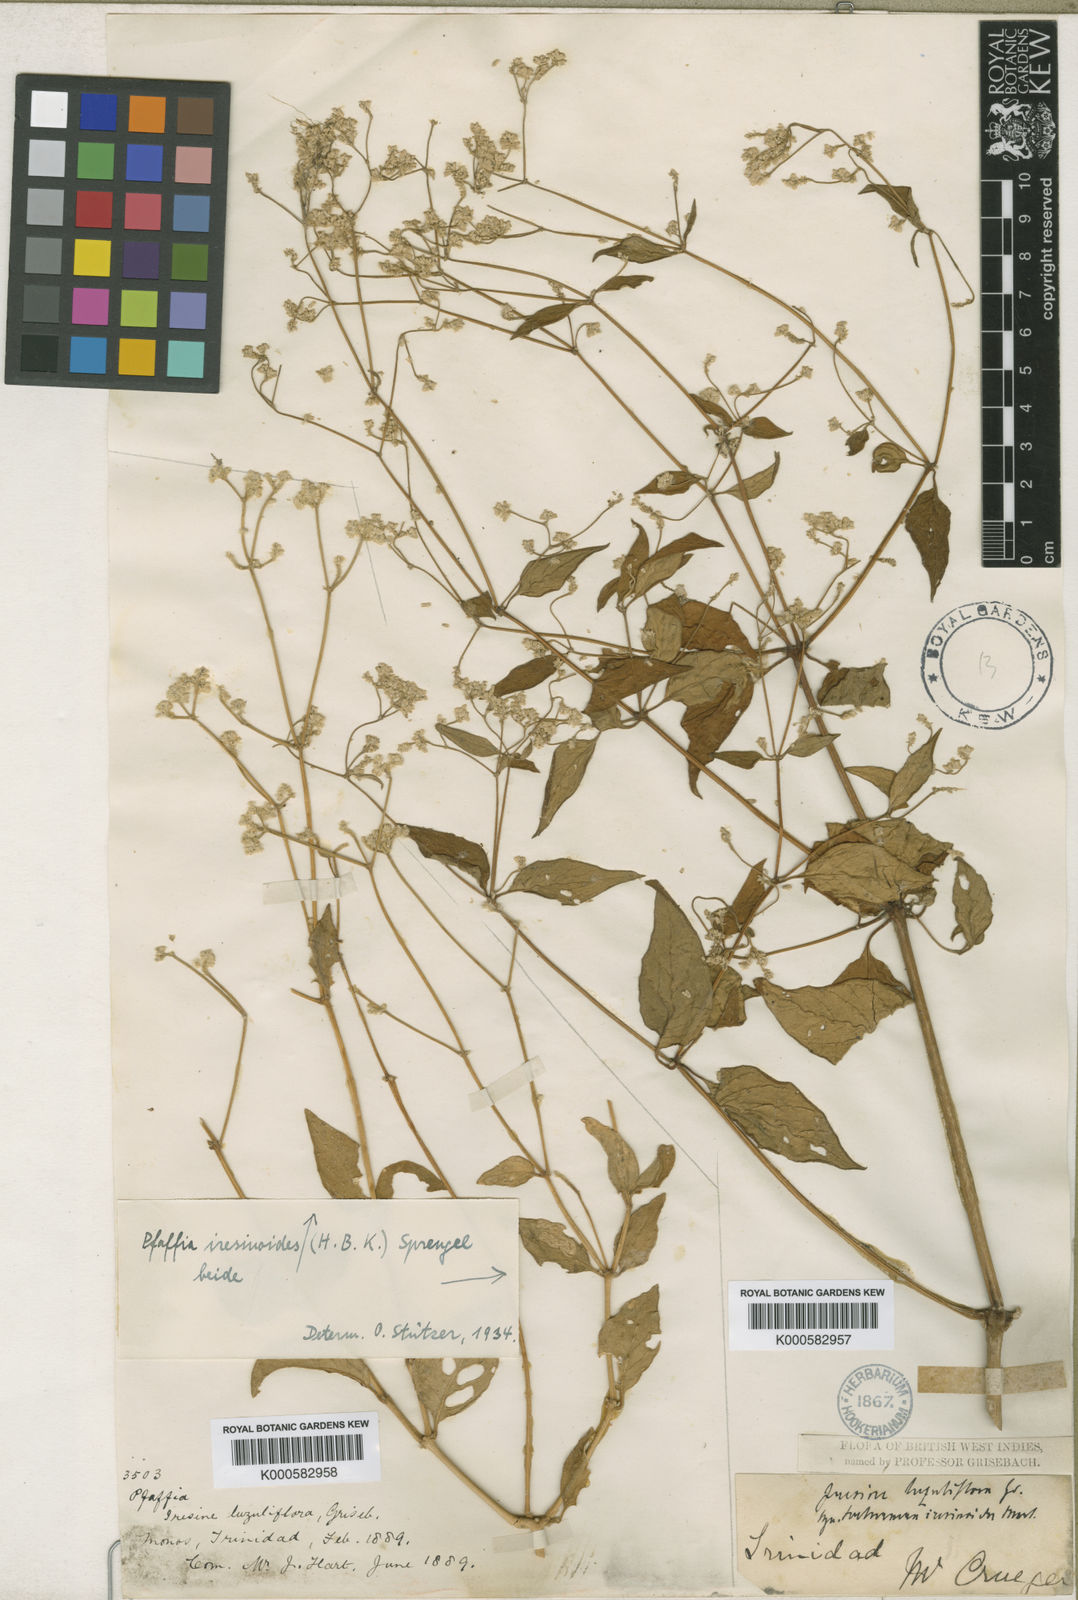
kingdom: Plantae
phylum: Tracheophyta
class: Magnoliopsida
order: Caryophyllales
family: Amaranthaceae
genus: Pfaffia
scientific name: Pfaffia iresinoides
